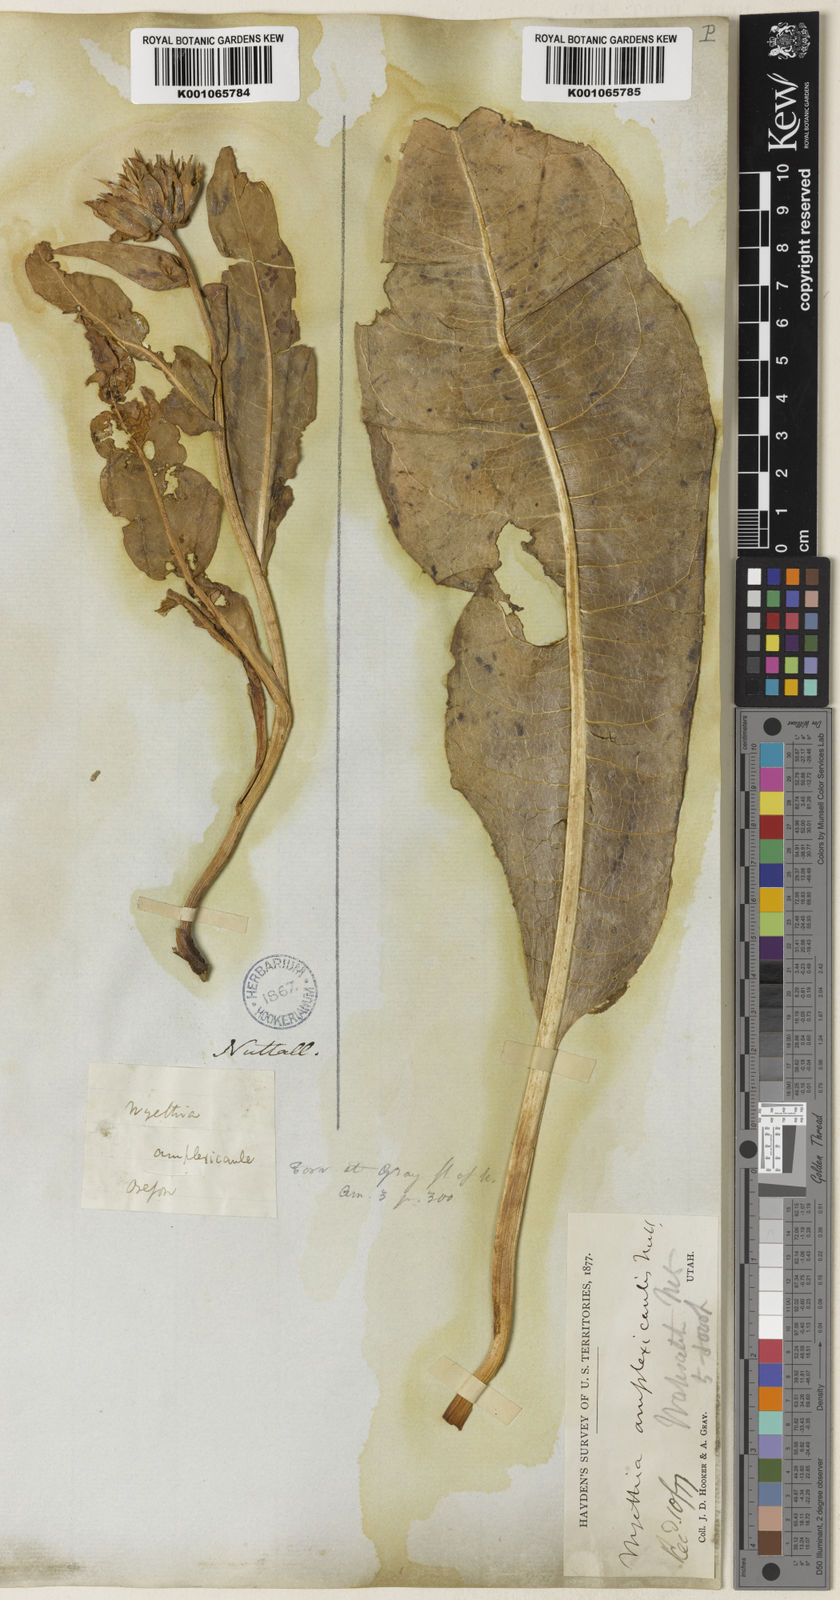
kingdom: Plantae
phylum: Tracheophyta
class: Magnoliopsida
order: Asterales
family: Asteraceae
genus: Wyethia
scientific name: Wyethia amplexicaulis
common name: Northern mule's-ears
